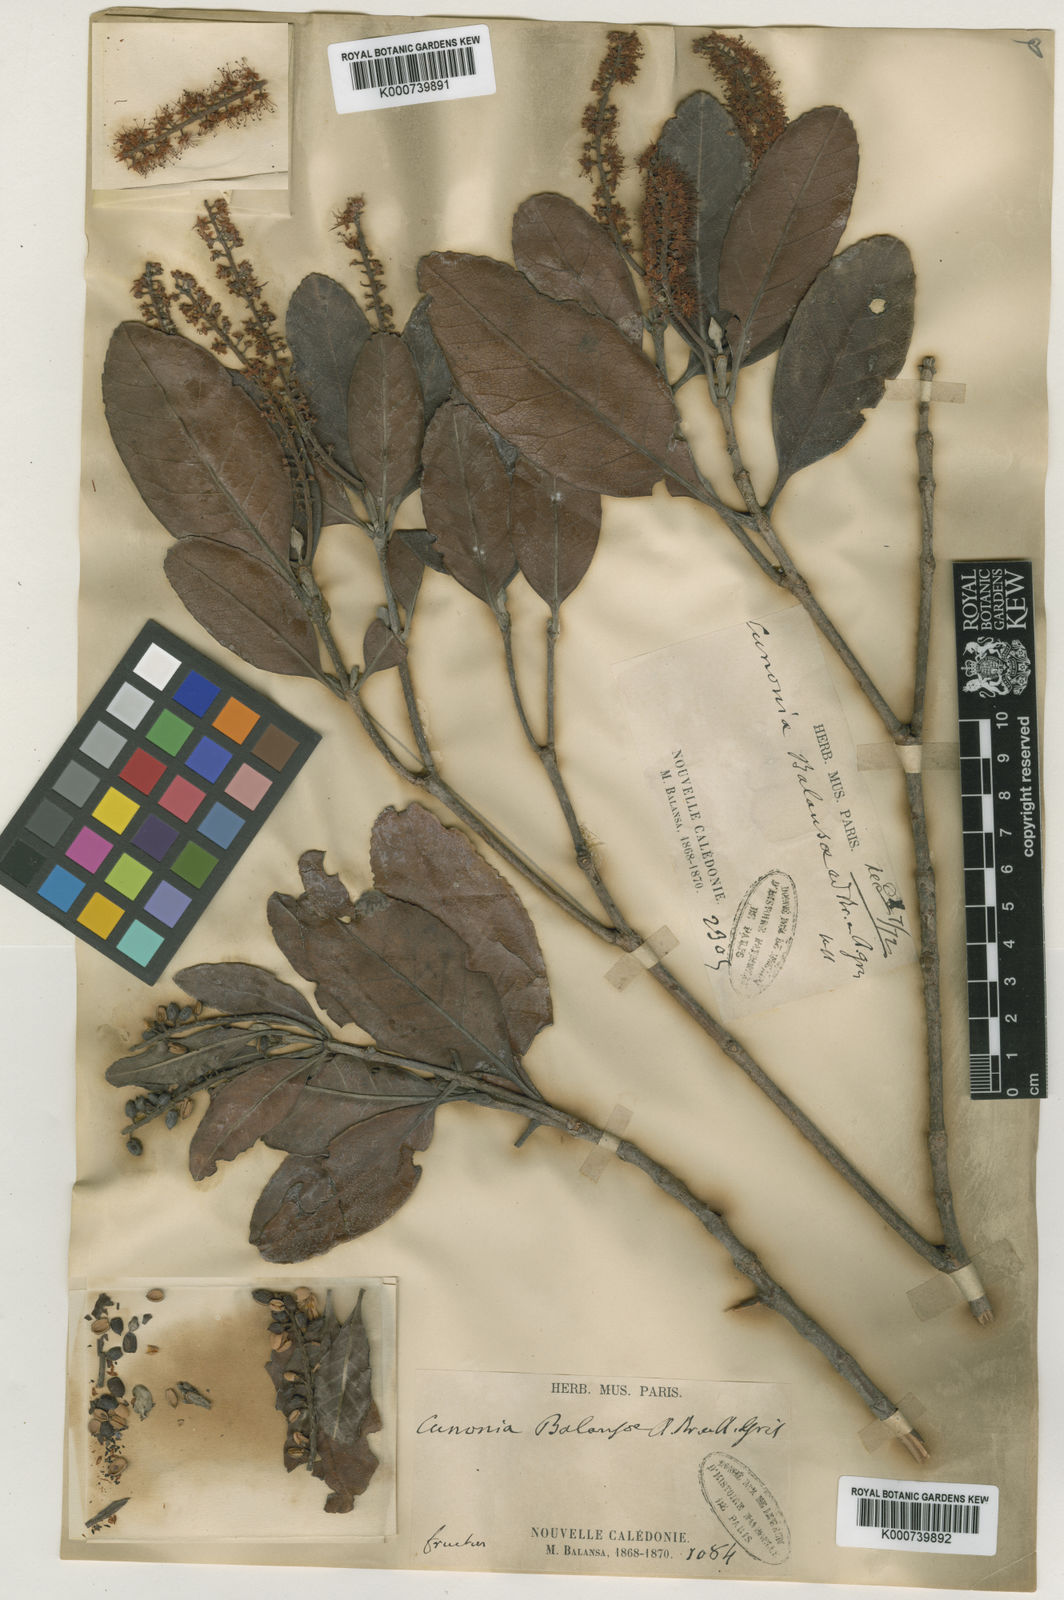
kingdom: Plantae
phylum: Tracheophyta
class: Magnoliopsida
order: Oxalidales
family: Cunoniaceae
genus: Cunonia
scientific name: Cunonia balansae
